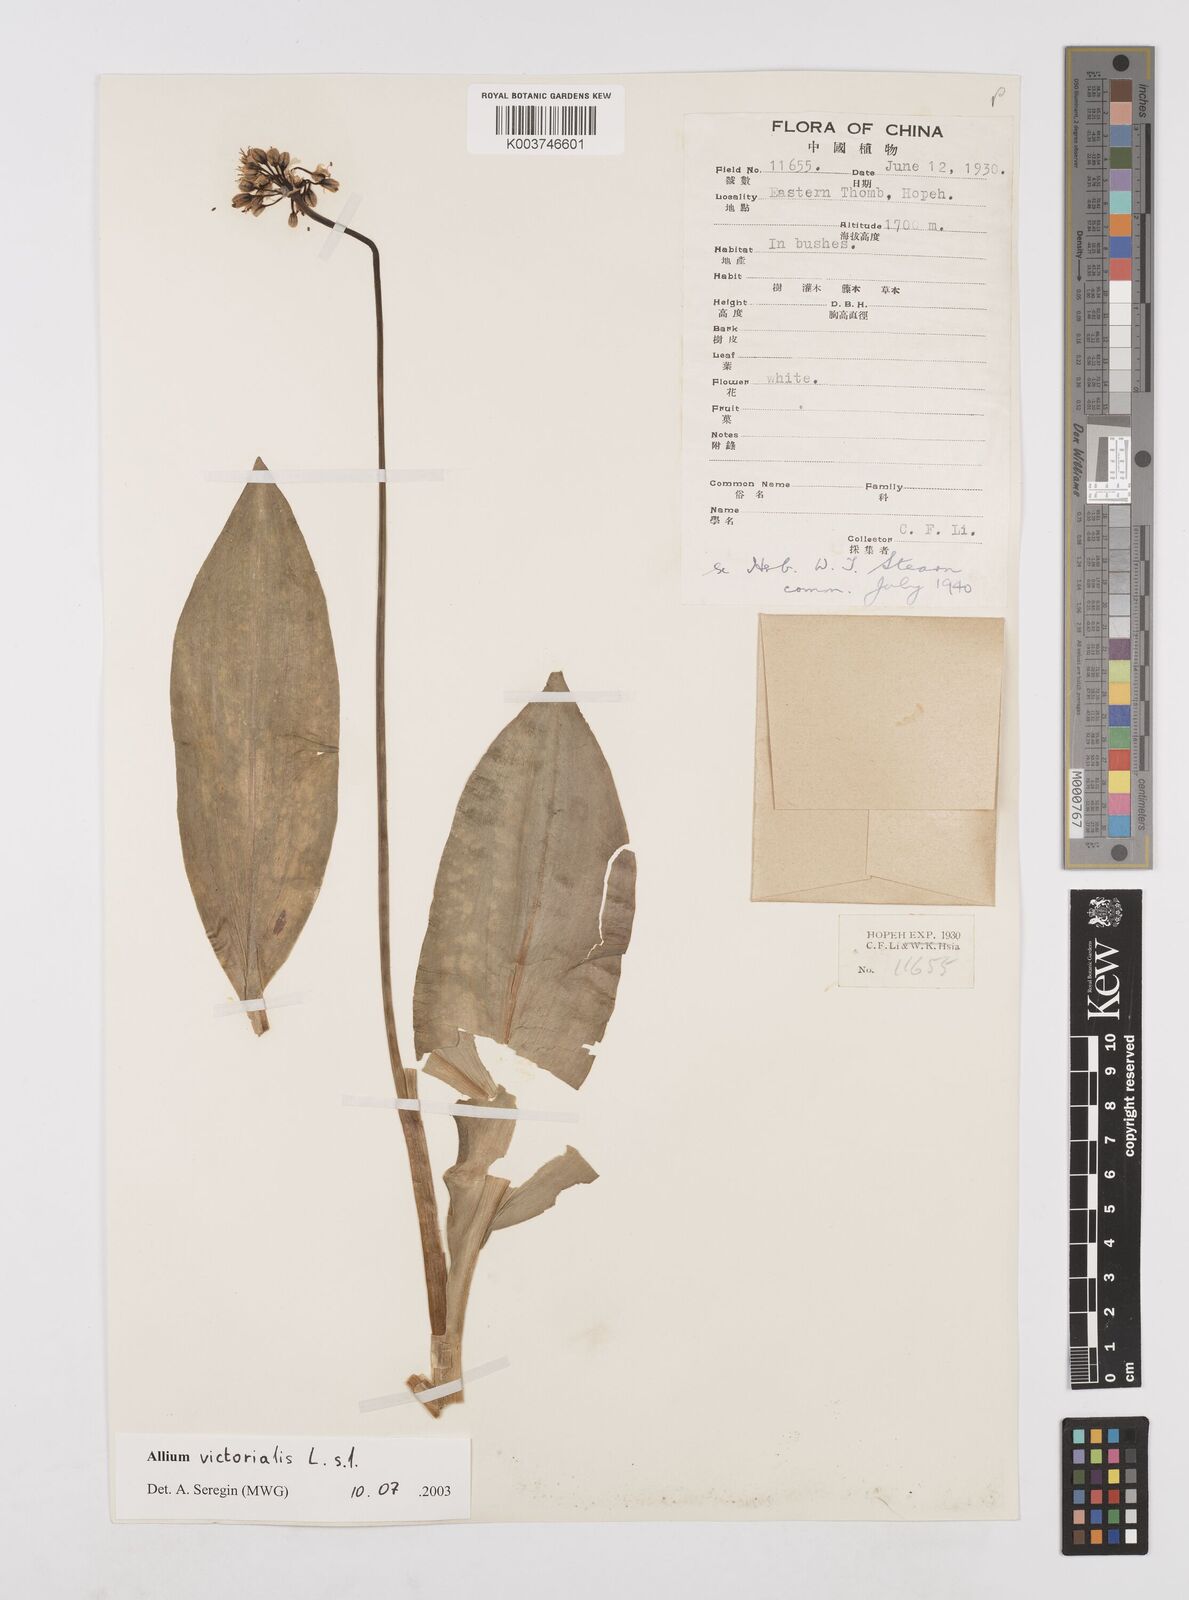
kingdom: Plantae
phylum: Tracheophyta
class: Liliopsida
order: Asparagales
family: Amaryllidaceae
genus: Allium
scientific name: Allium victorialis
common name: Alpine leek
